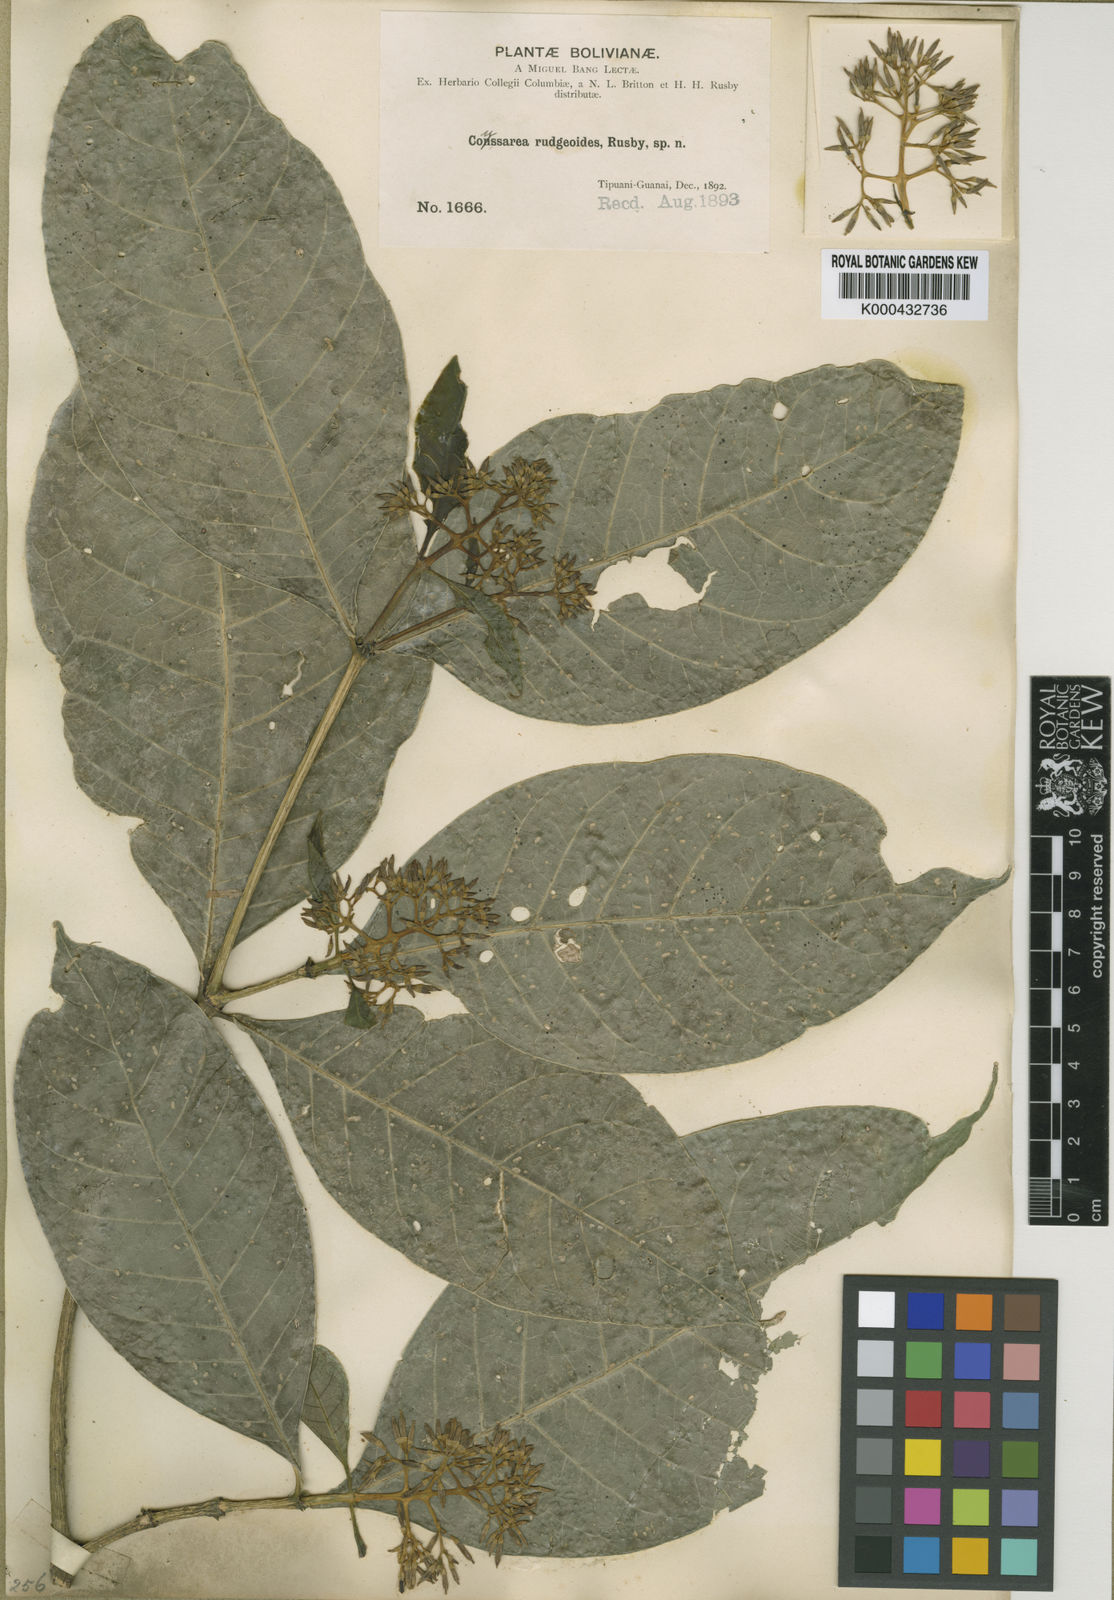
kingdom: Plantae
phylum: Tracheophyta
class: Magnoliopsida
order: Gentianales
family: Rubiaceae
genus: Coussarea
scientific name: Coussarea rudgeoides
